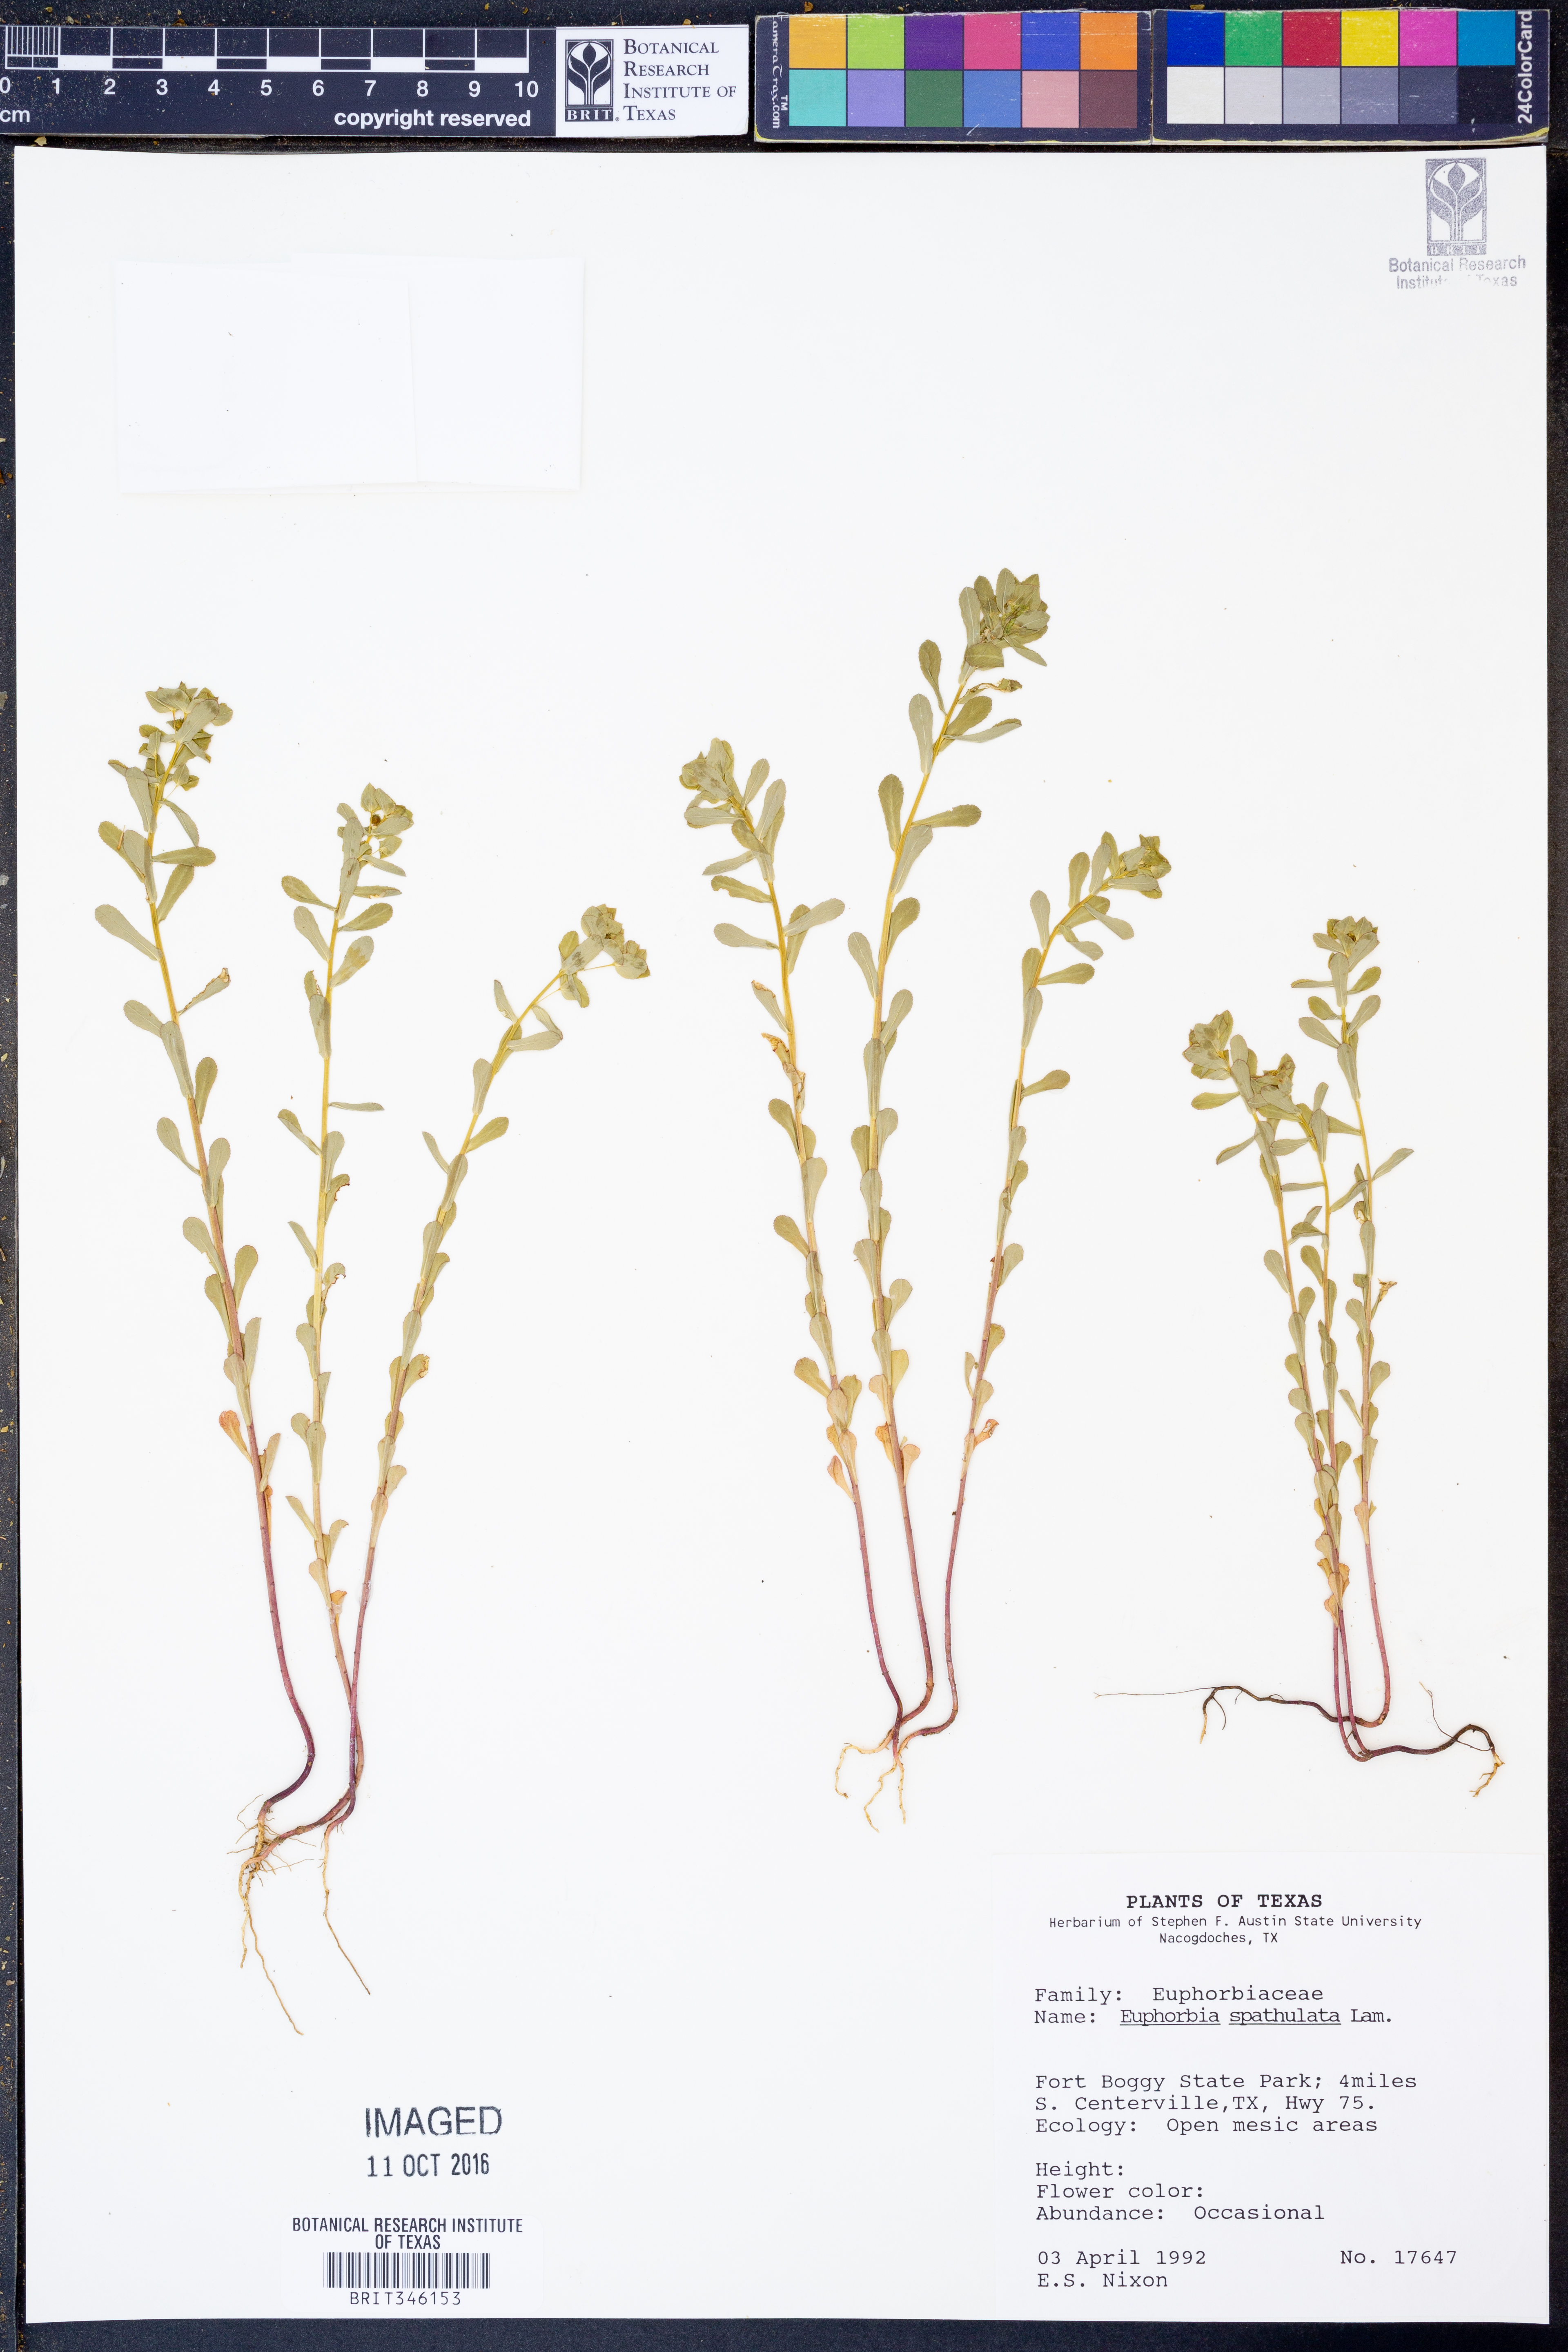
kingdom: Plantae
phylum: Tracheophyta
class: Magnoliopsida
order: Malpighiales
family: Euphorbiaceae
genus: Euphorbia
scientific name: Euphorbia spathulata
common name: Blunt spurge
